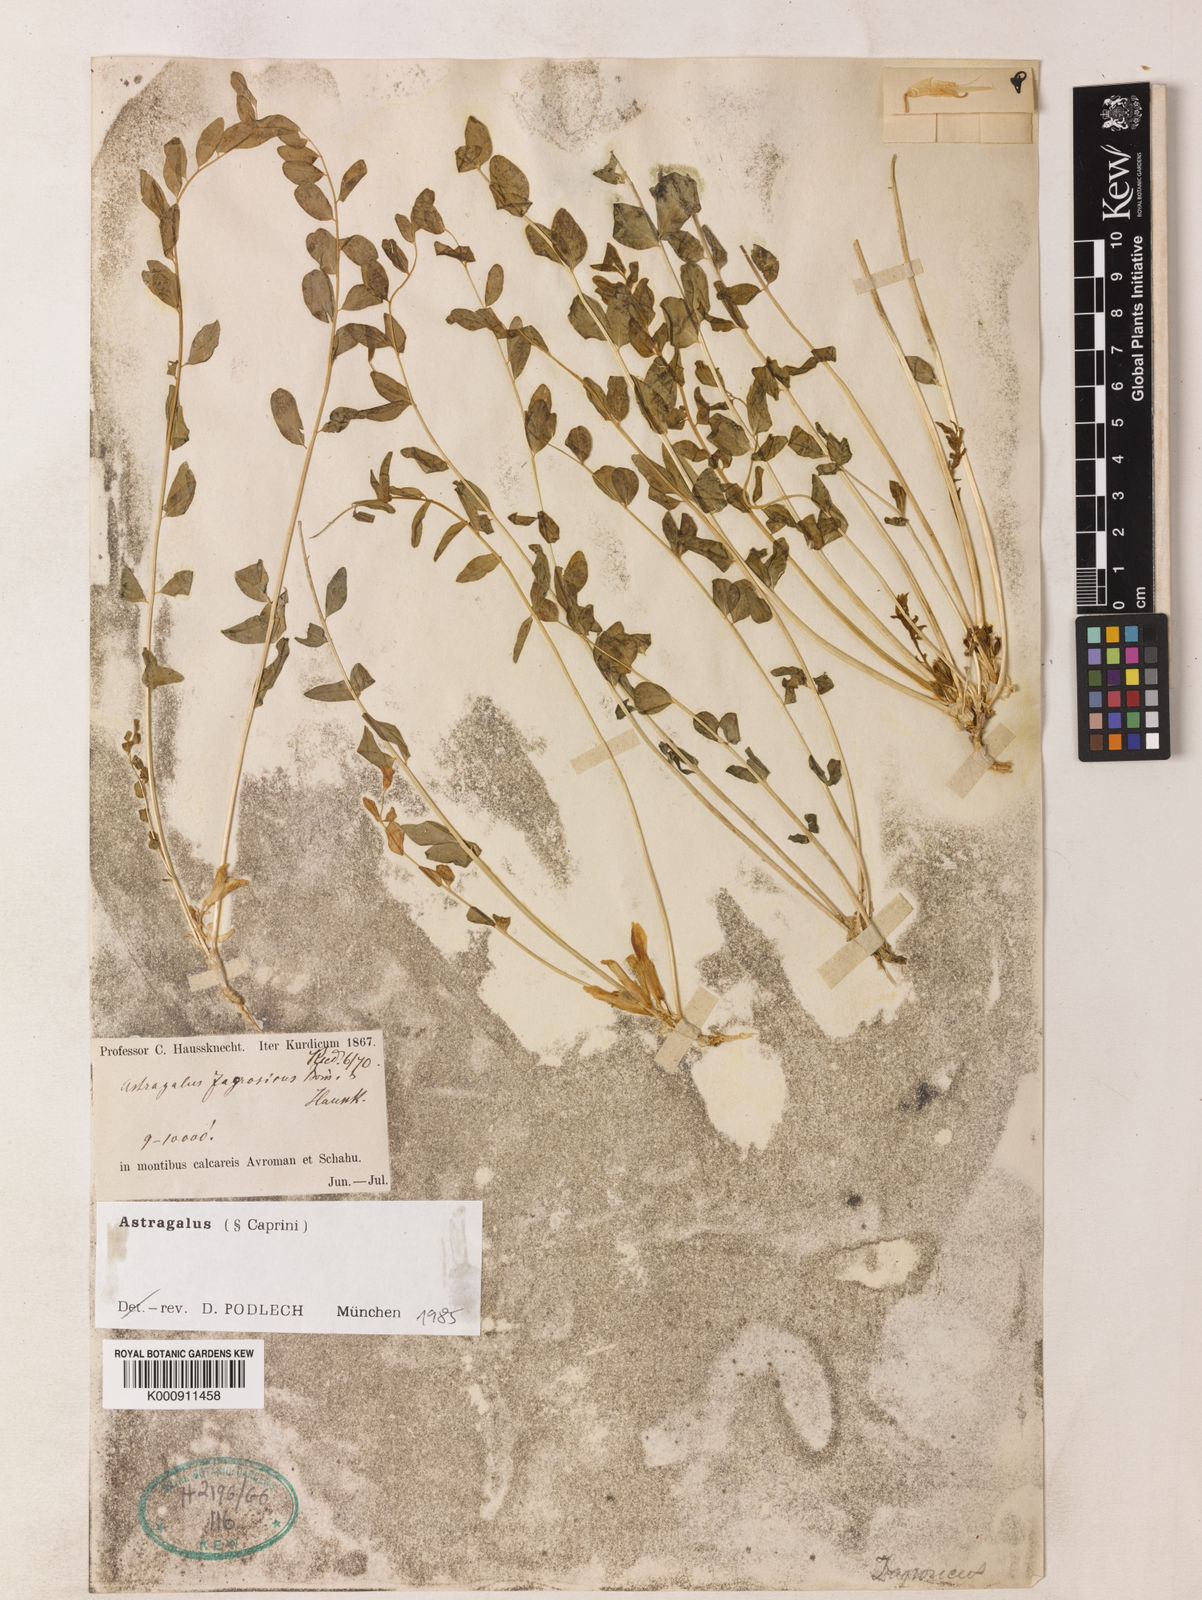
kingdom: Plantae
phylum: Tracheophyta
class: Magnoliopsida
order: Fabales
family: Fabaceae
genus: Astragalus
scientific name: Astragalus zagrosicus
